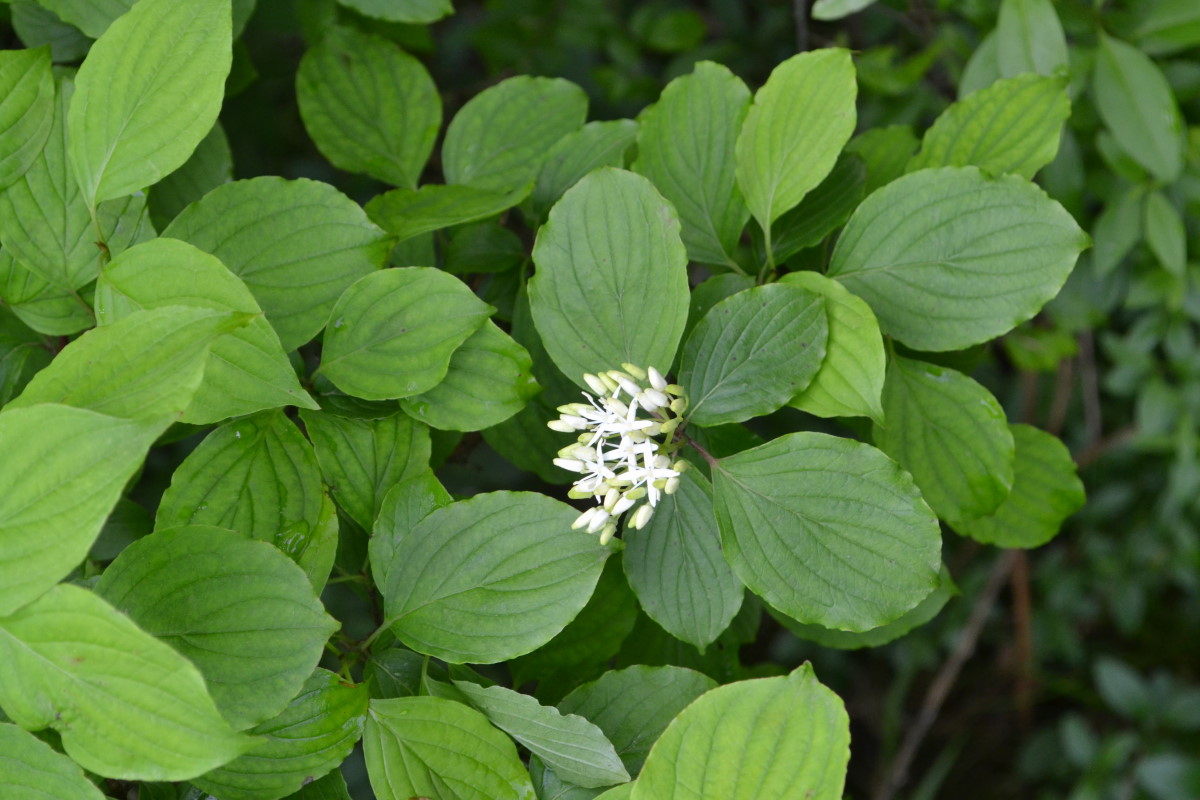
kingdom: Plantae
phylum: Tracheophyta
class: Magnoliopsida
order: Cornales
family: Cornaceae
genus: Cornus
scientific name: Cornus alba
